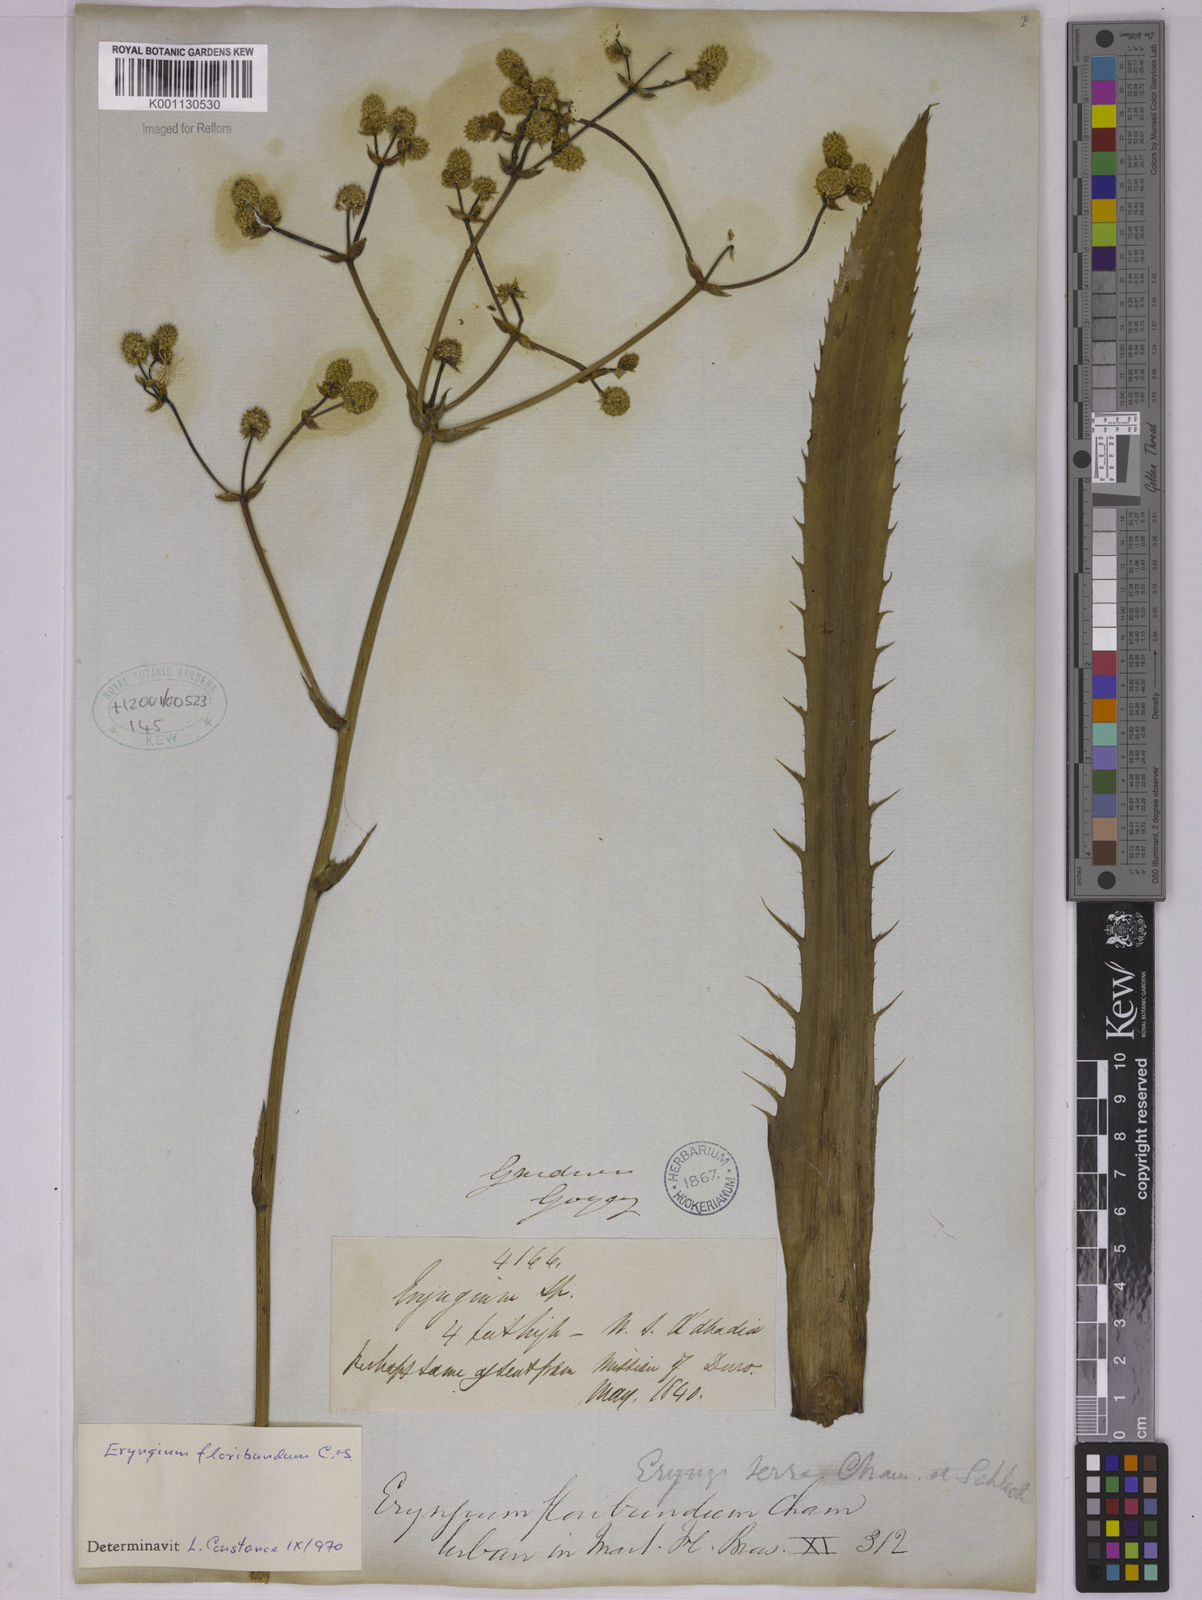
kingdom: Plantae
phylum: Tracheophyta
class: Magnoliopsida
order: Apiales
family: Apiaceae
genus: Eryngium
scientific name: Eryngium floribundum
